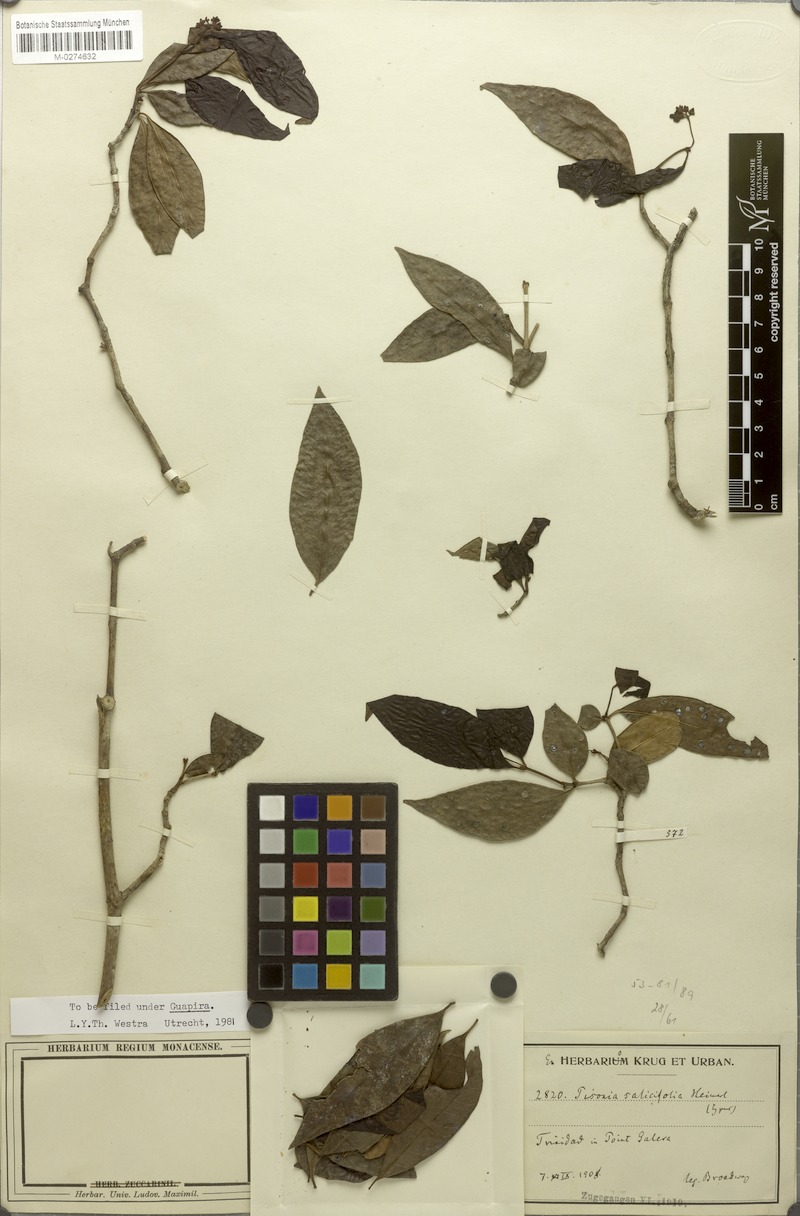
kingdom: Plantae
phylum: Tracheophyta
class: Magnoliopsida
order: Caryophyllales
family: Nyctaginaceae
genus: Guapira
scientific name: Guapira salicifolia
